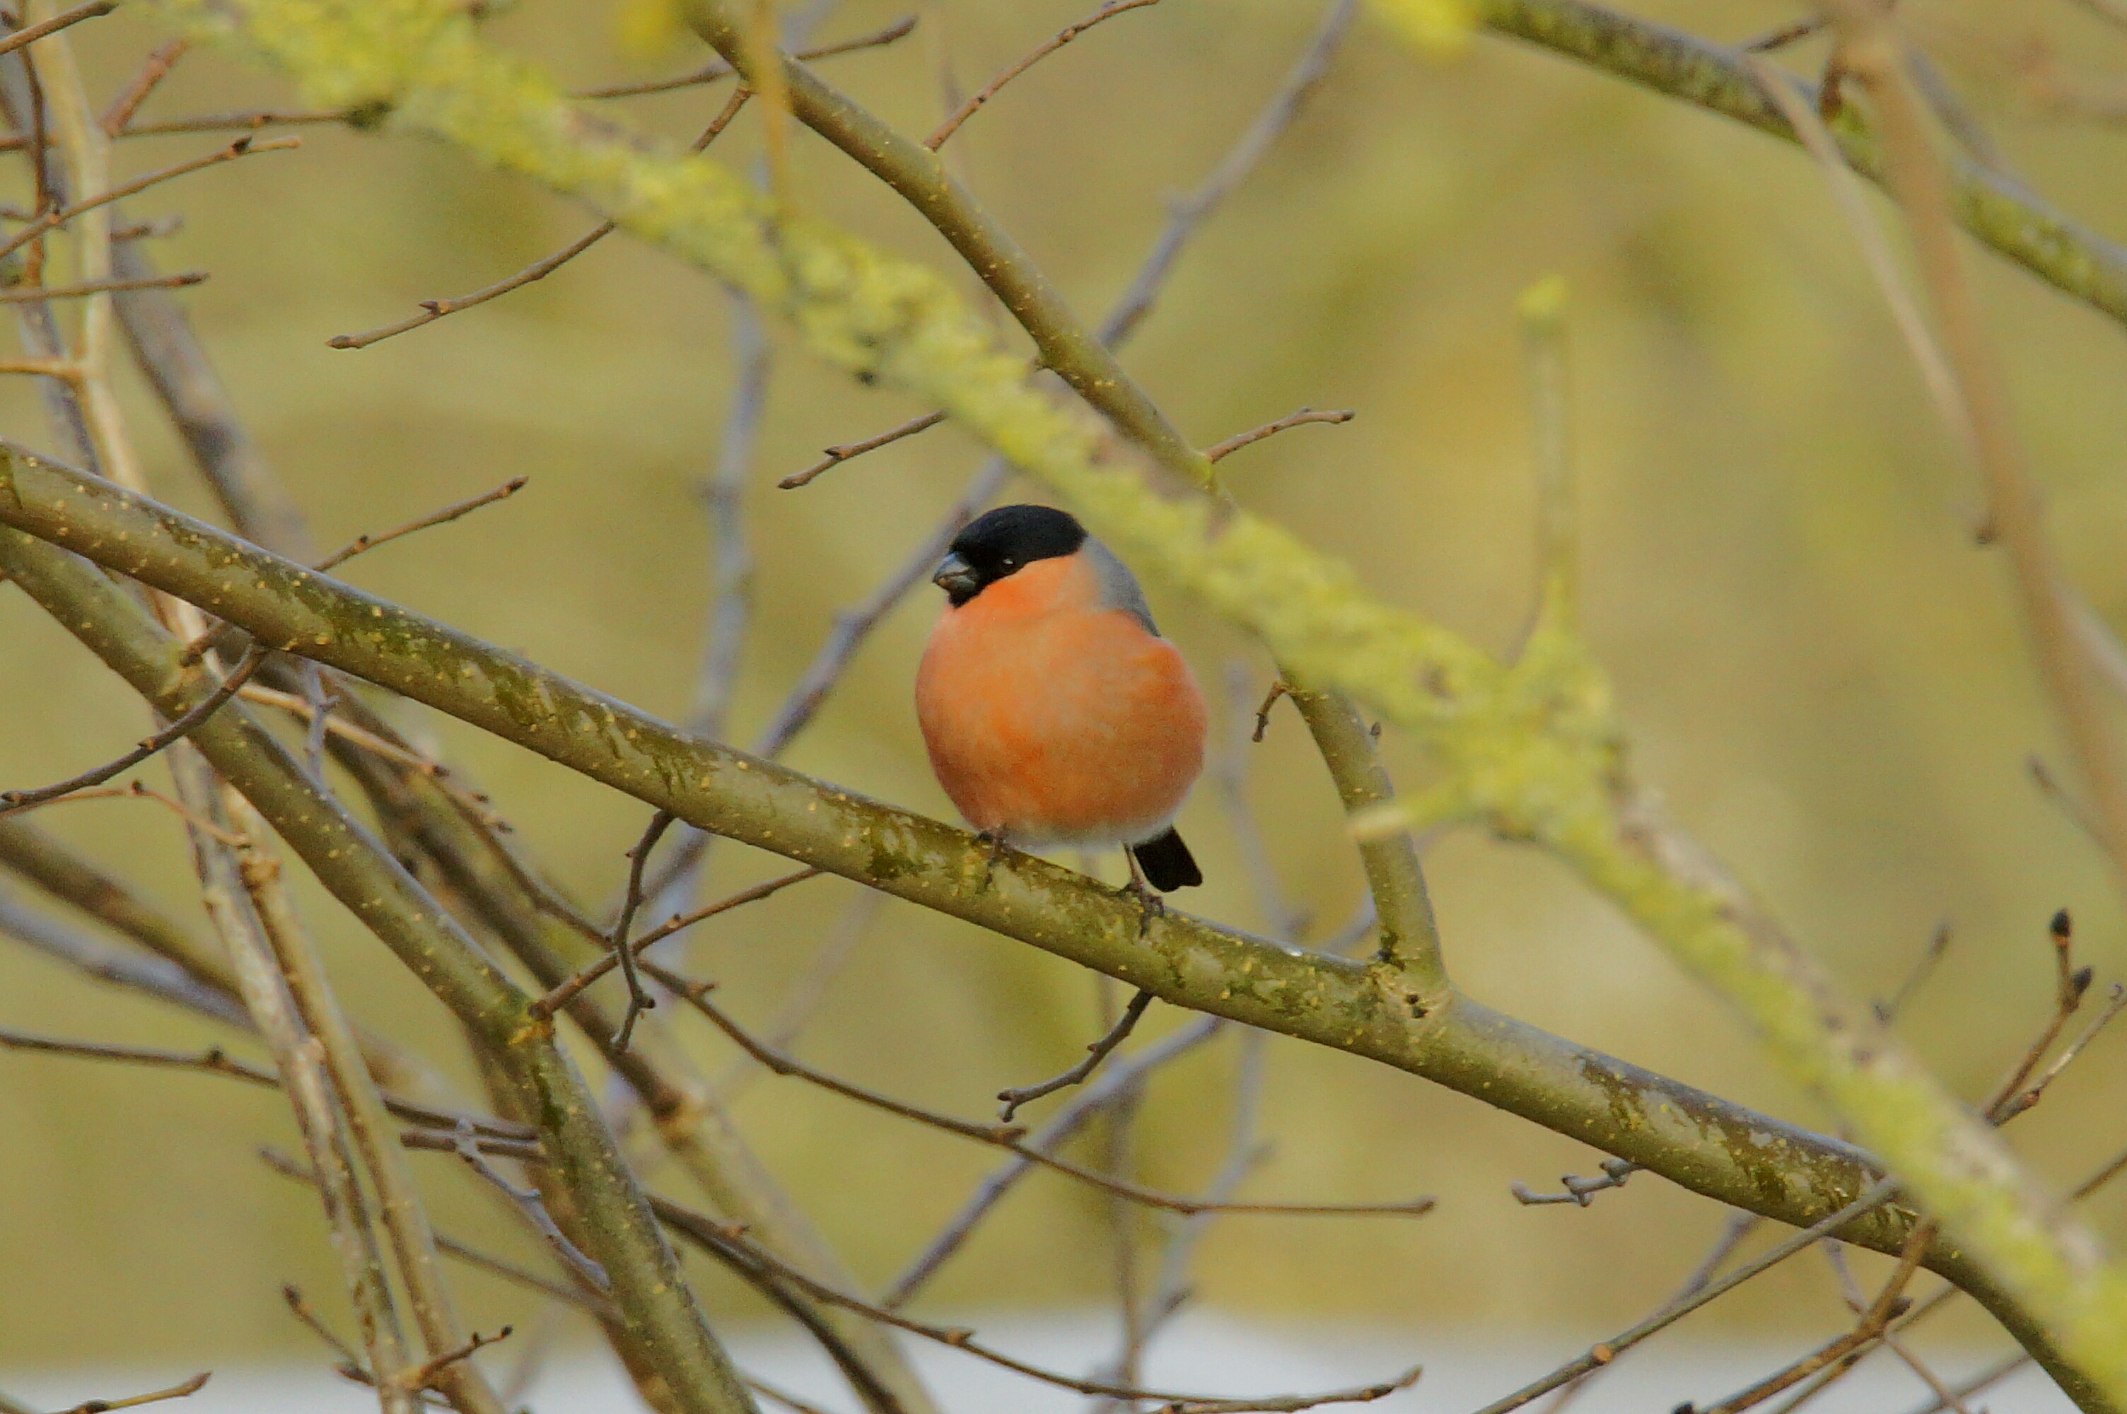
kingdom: Animalia
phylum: Chordata
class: Aves
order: Passeriformes
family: Fringillidae
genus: Pyrrhula
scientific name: Pyrrhula pyrrhula
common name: Dompap
